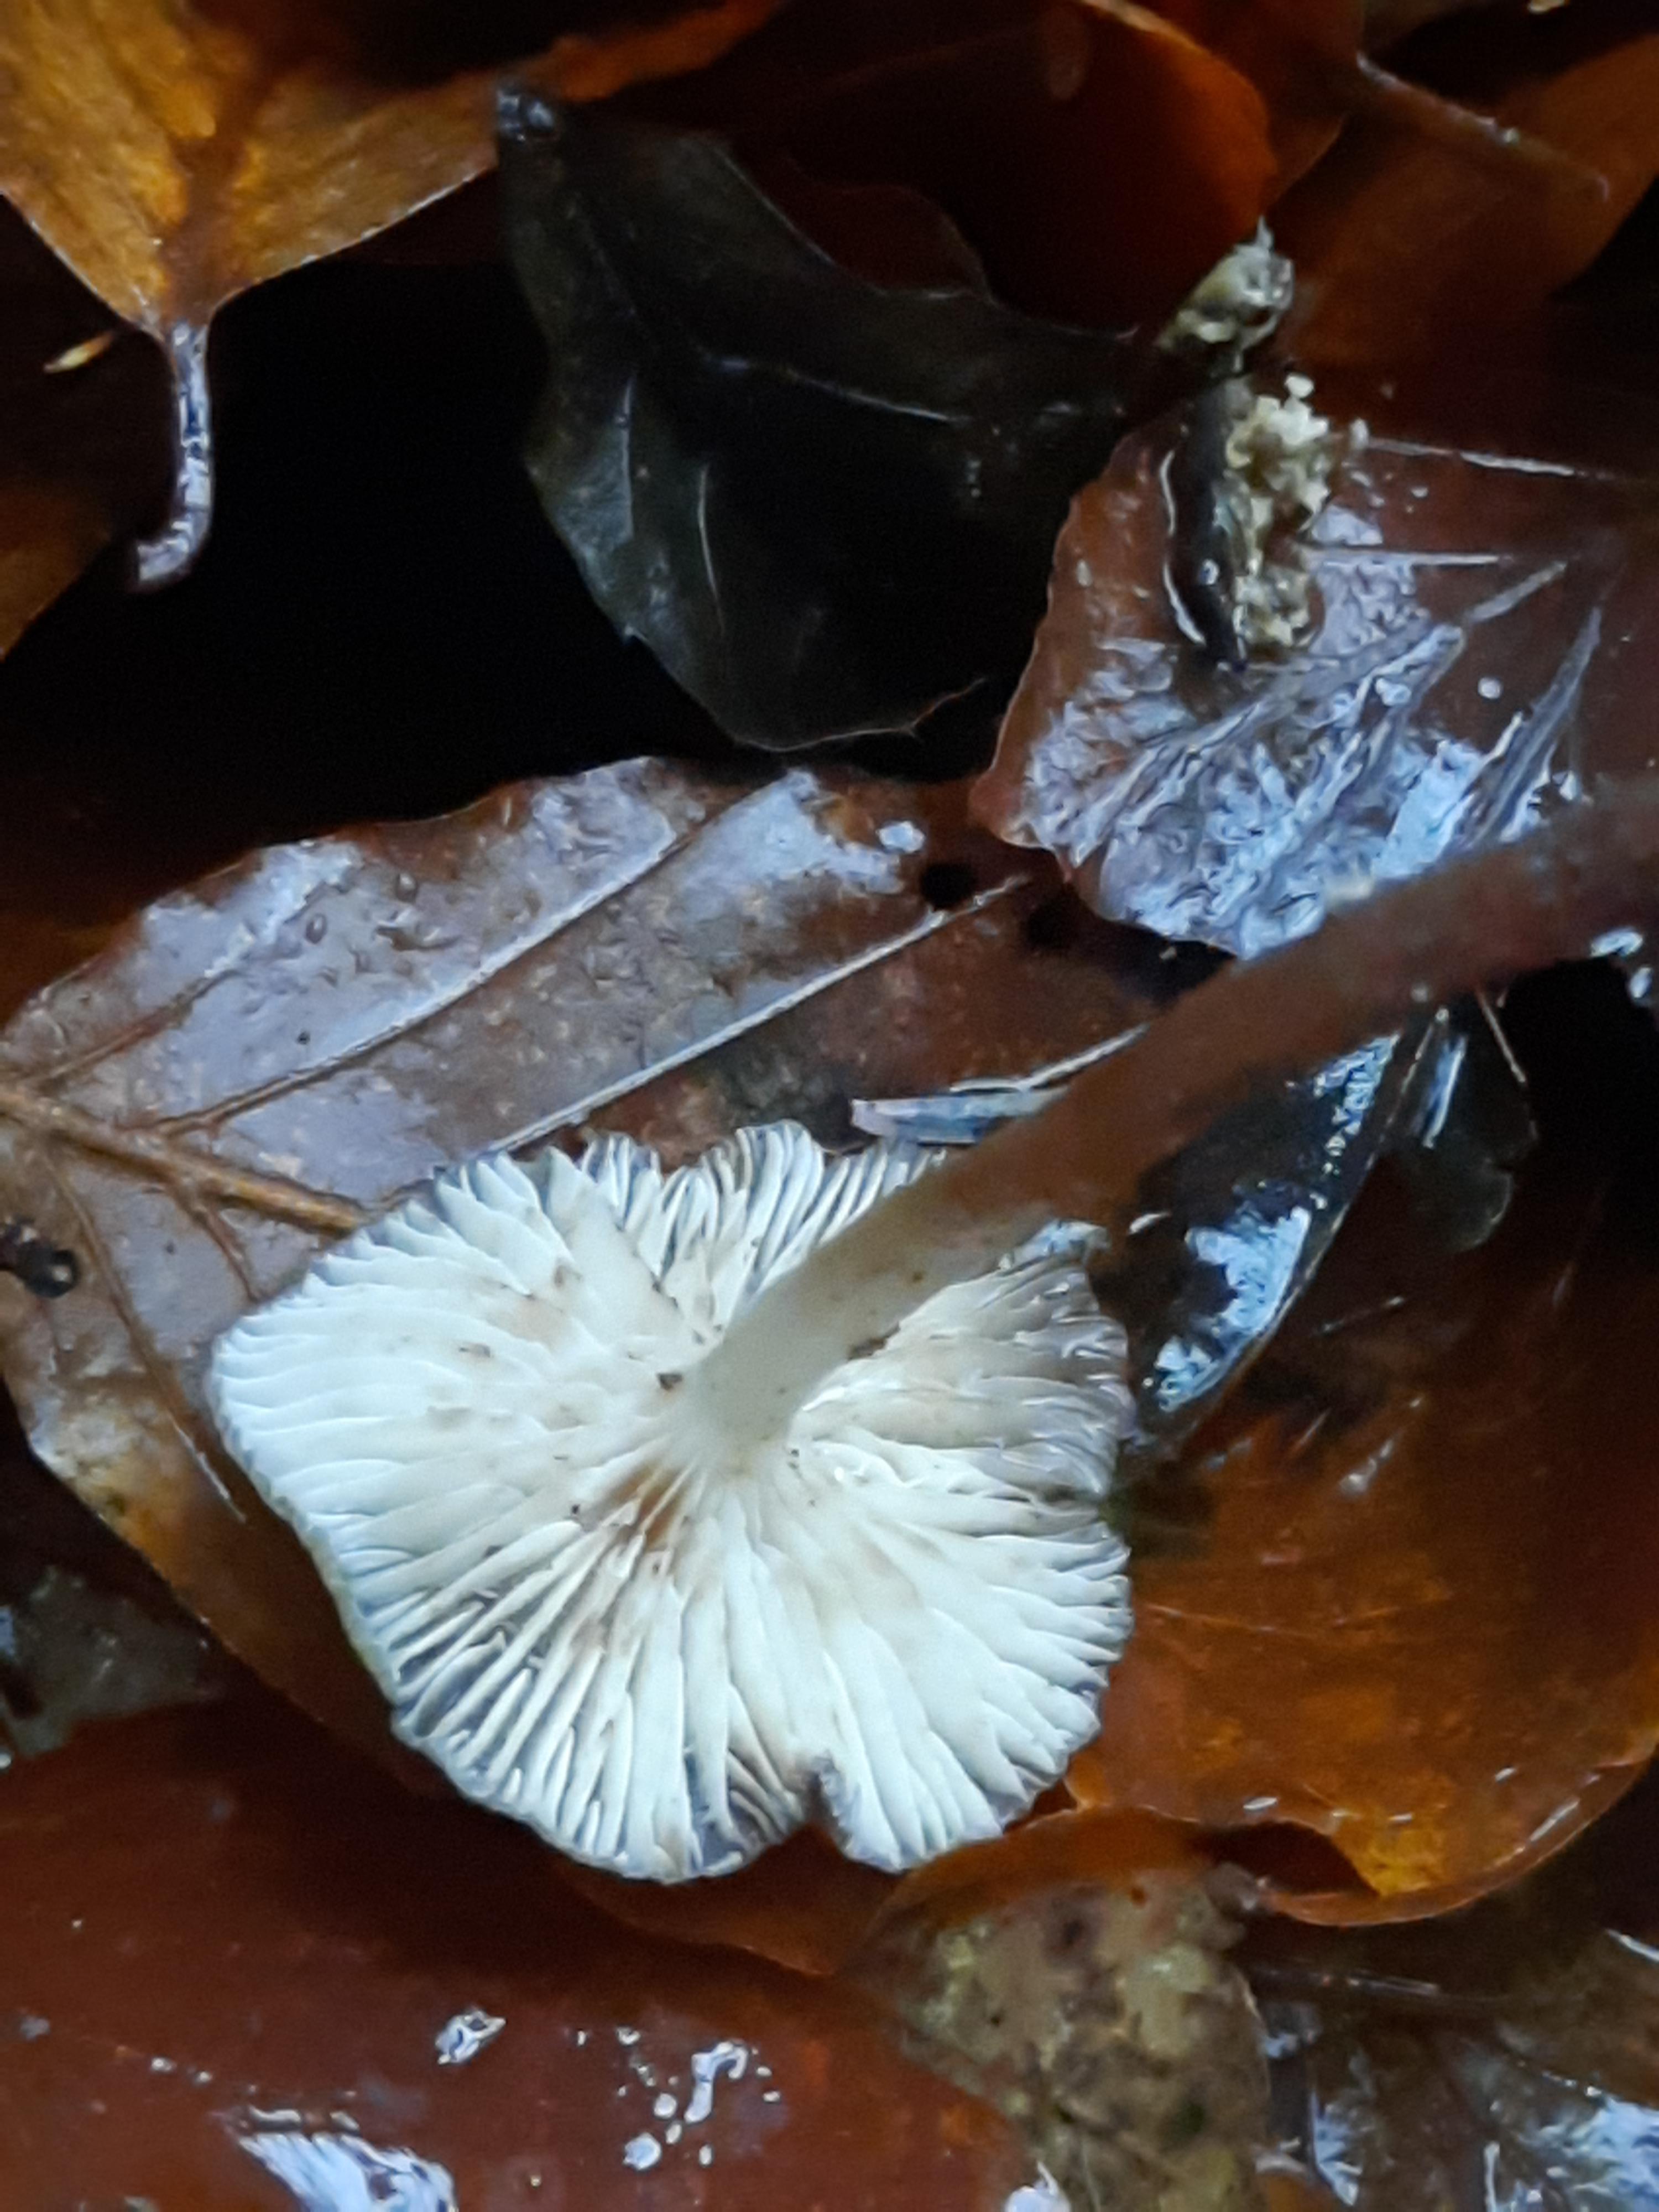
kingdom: Fungi
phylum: Basidiomycota
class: Agaricomycetes
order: Agaricales
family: Mycenaceae
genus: Mycena
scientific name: Mycena tintinnabulum
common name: vinter-huesvamp
